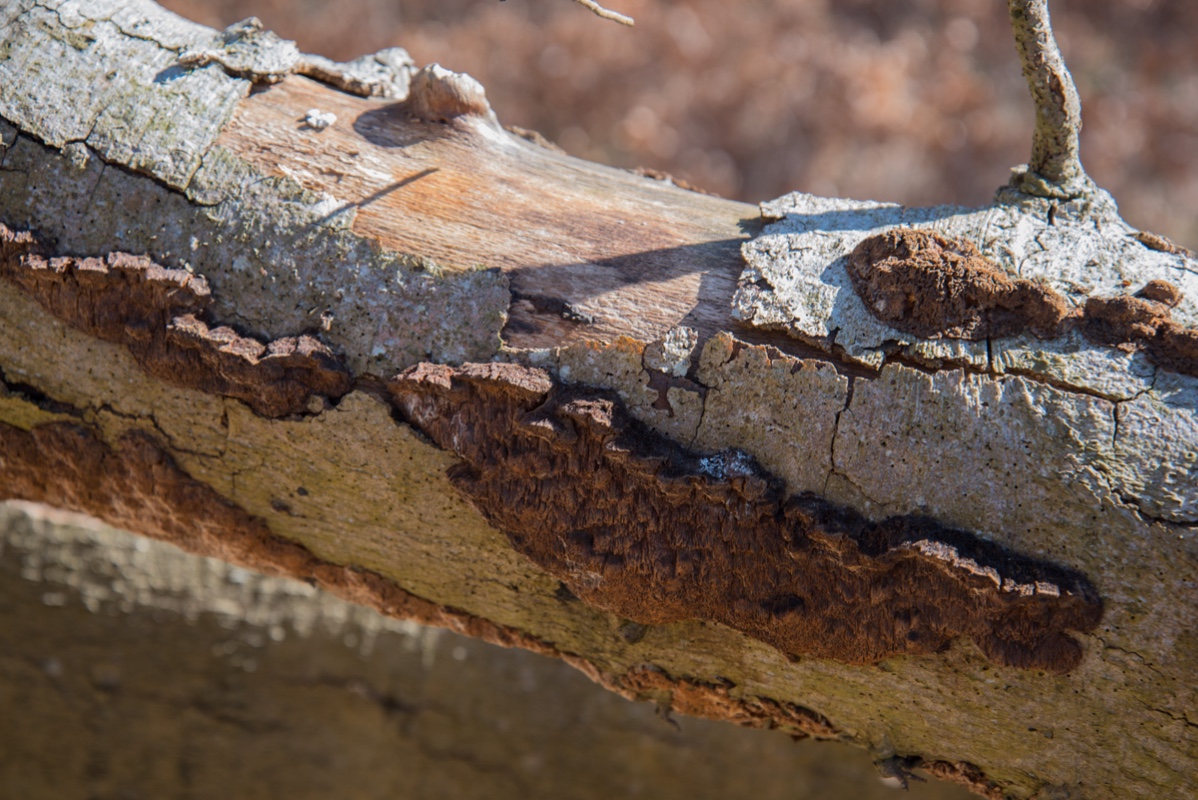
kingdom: Fungi
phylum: Basidiomycota
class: Agaricomycetes
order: Hymenochaetales
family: Hymenochaetaceae
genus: Mensularia
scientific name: Mensularia nodulosa
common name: bøge-spejlporesvamp
